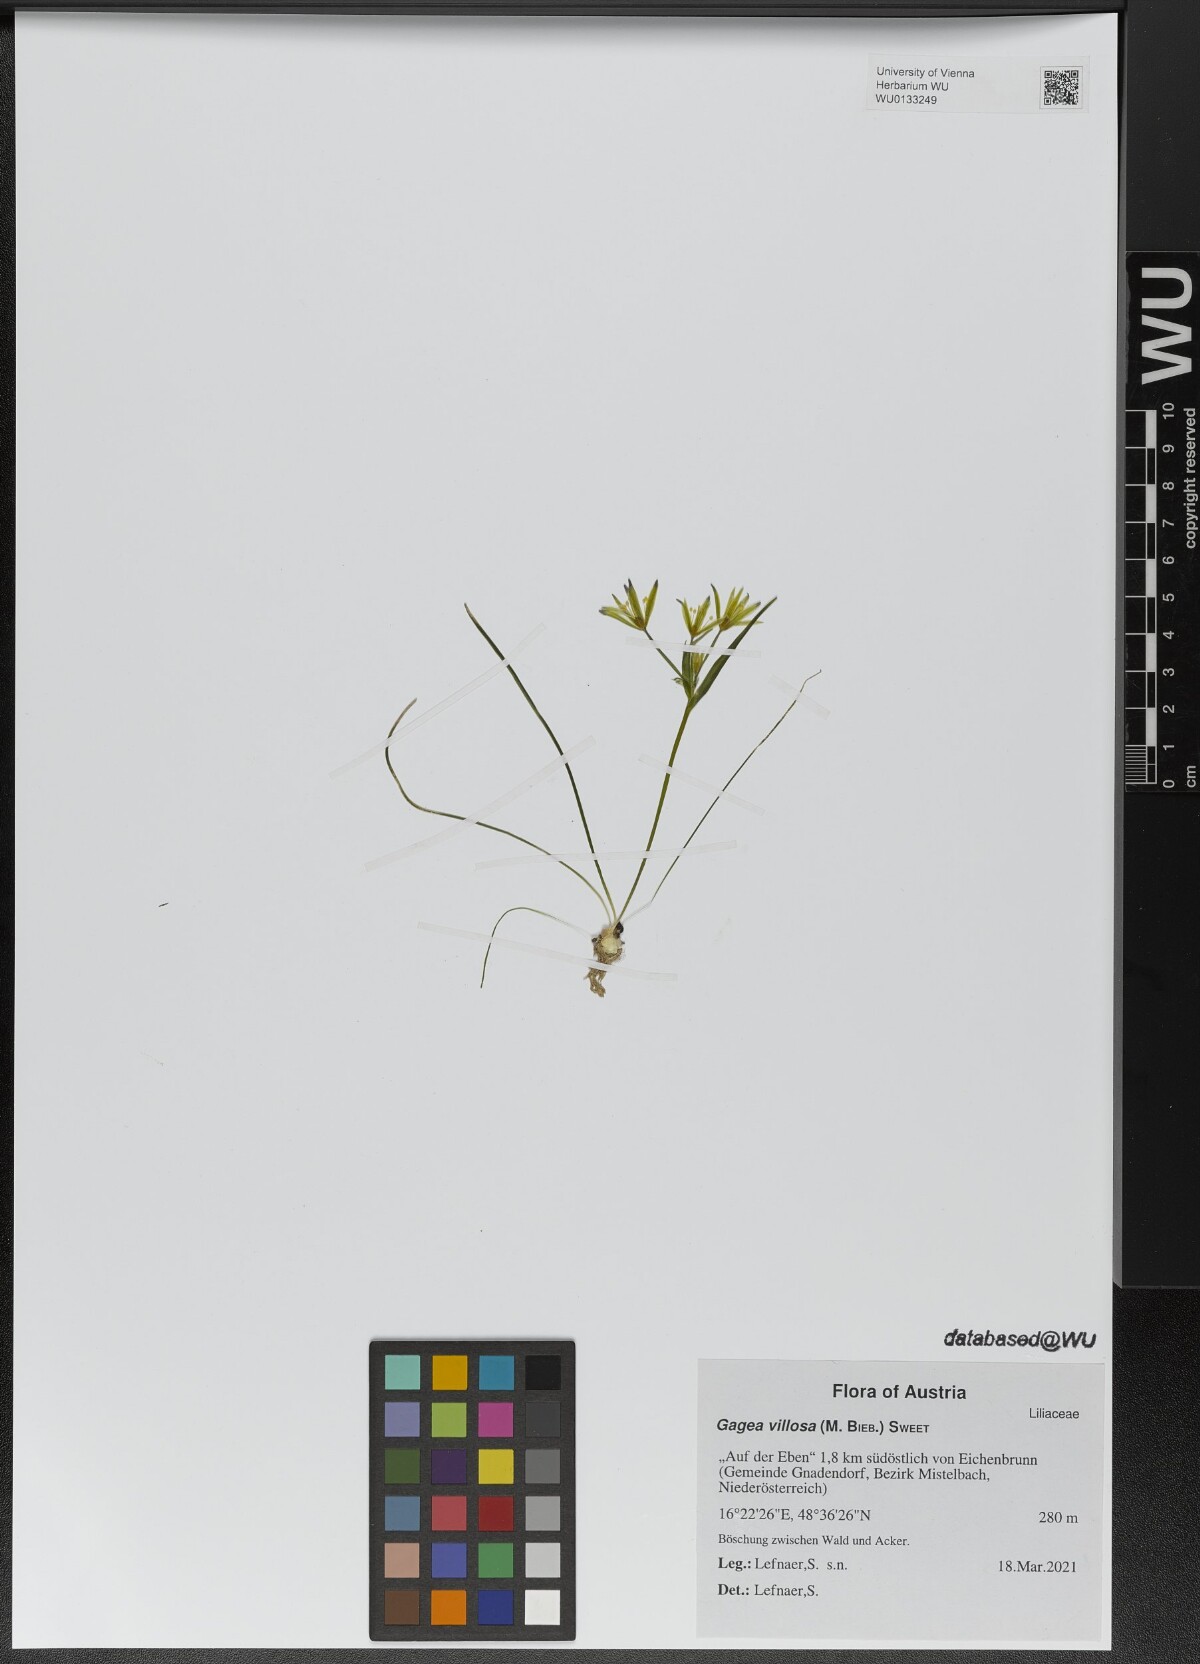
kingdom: Plantae
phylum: Tracheophyta
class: Liliopsida
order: Liliales
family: Liliaceae
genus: Gagea
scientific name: Gagea villosa
